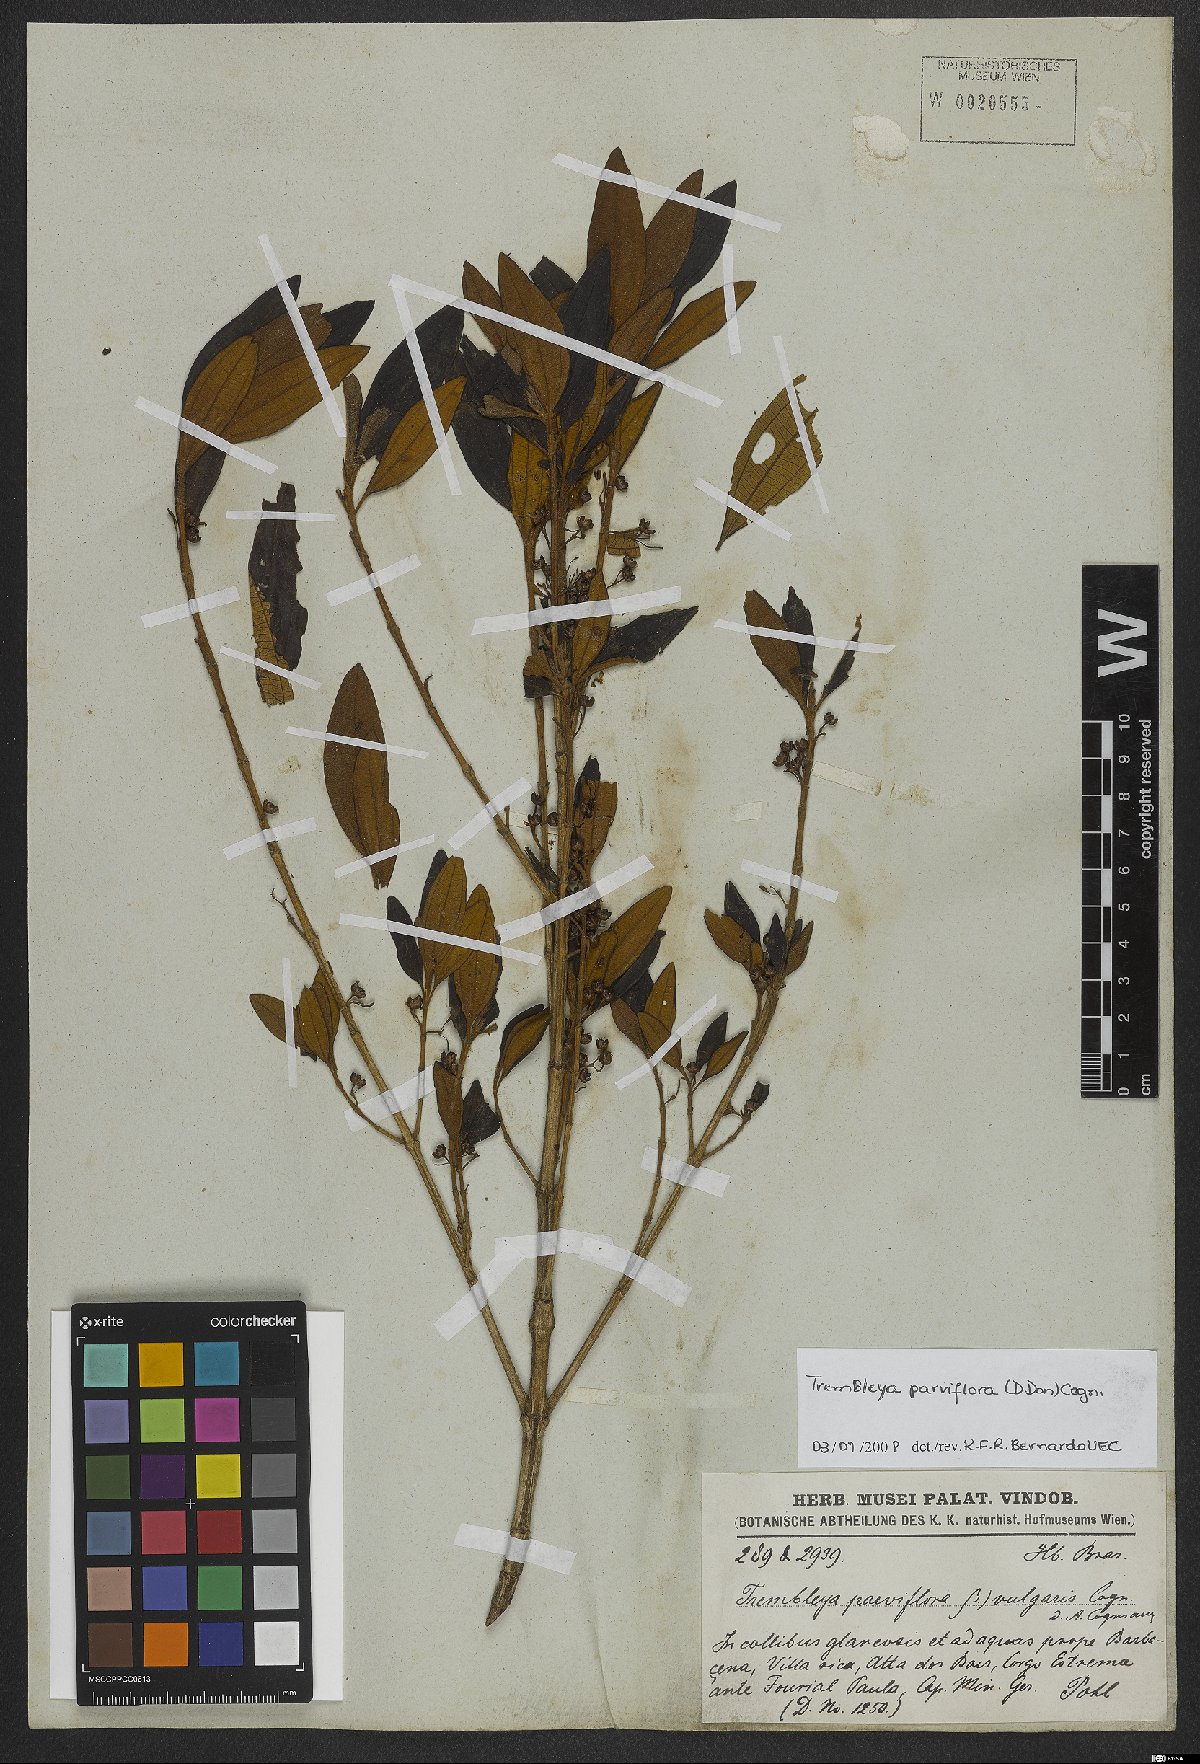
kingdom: Plantae
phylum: Tracheophyta
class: Magnoliopsida
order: Myrtales
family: Melastomataceae
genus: Microlicia
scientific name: Microlicia parviflora
